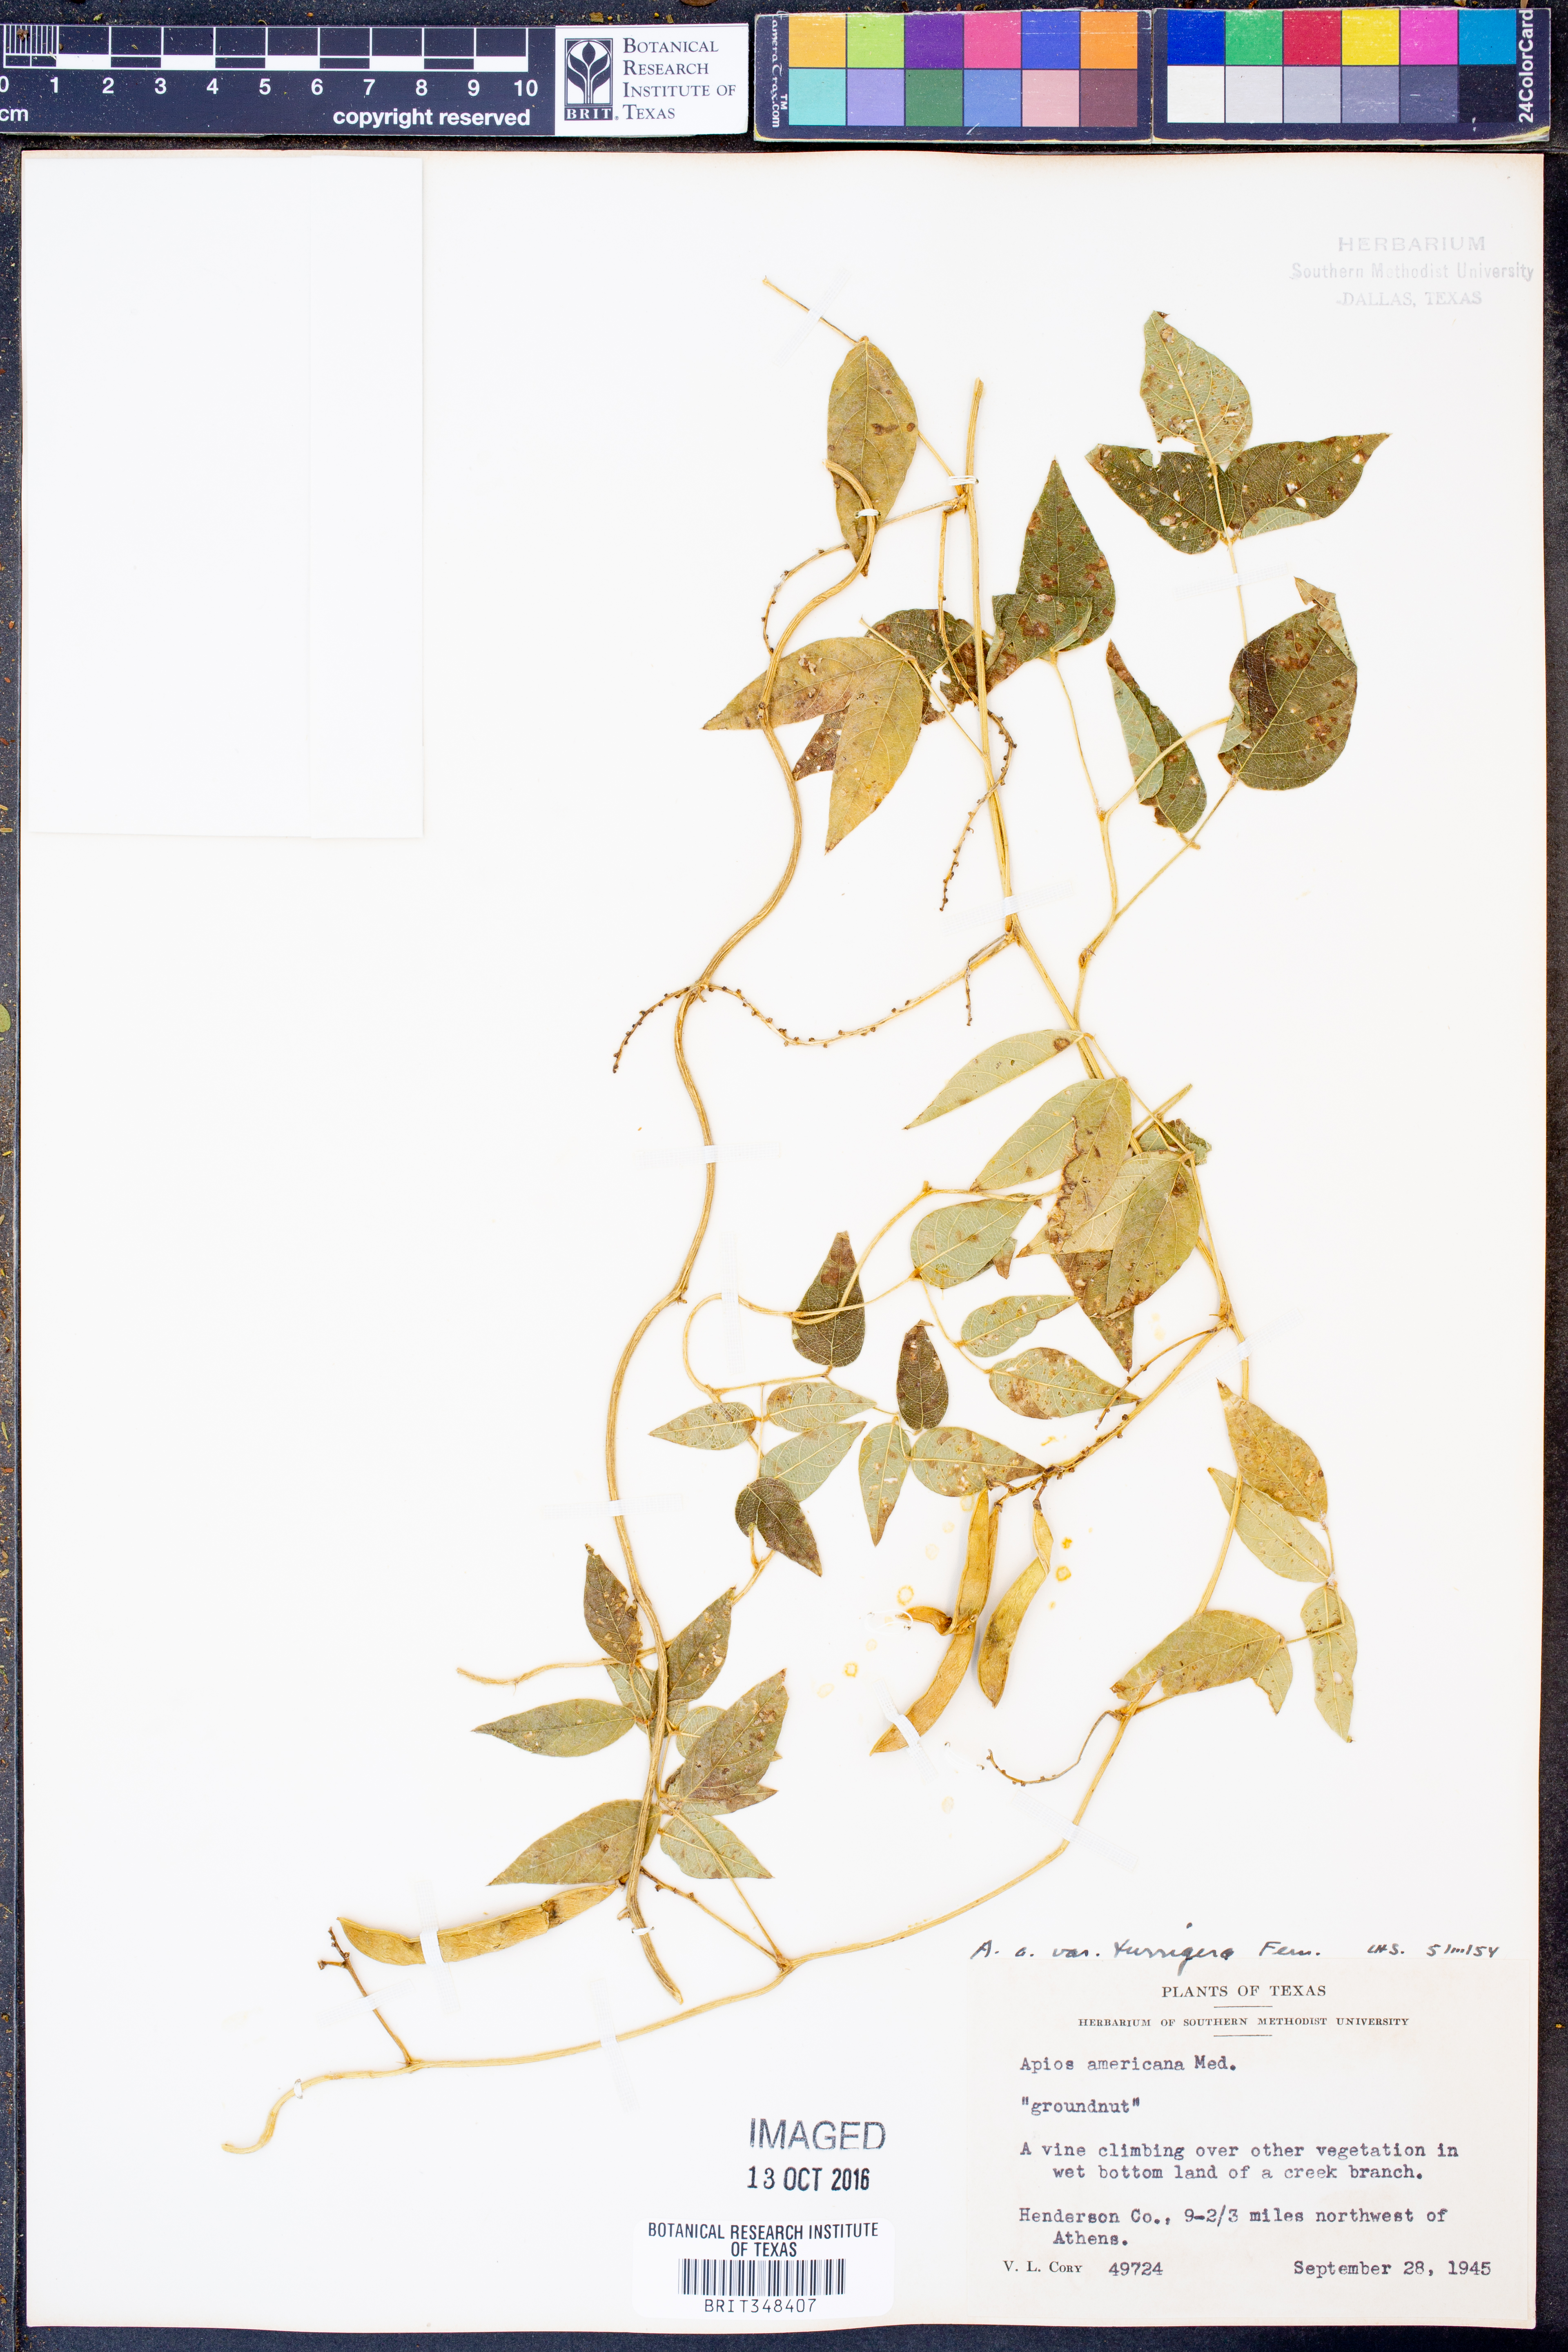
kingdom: Plantae
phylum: Tracheophyta
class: Magnoliopsida
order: Fabales
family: Fabaceae
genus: Apios
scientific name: Apios americana
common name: American potato-bean
